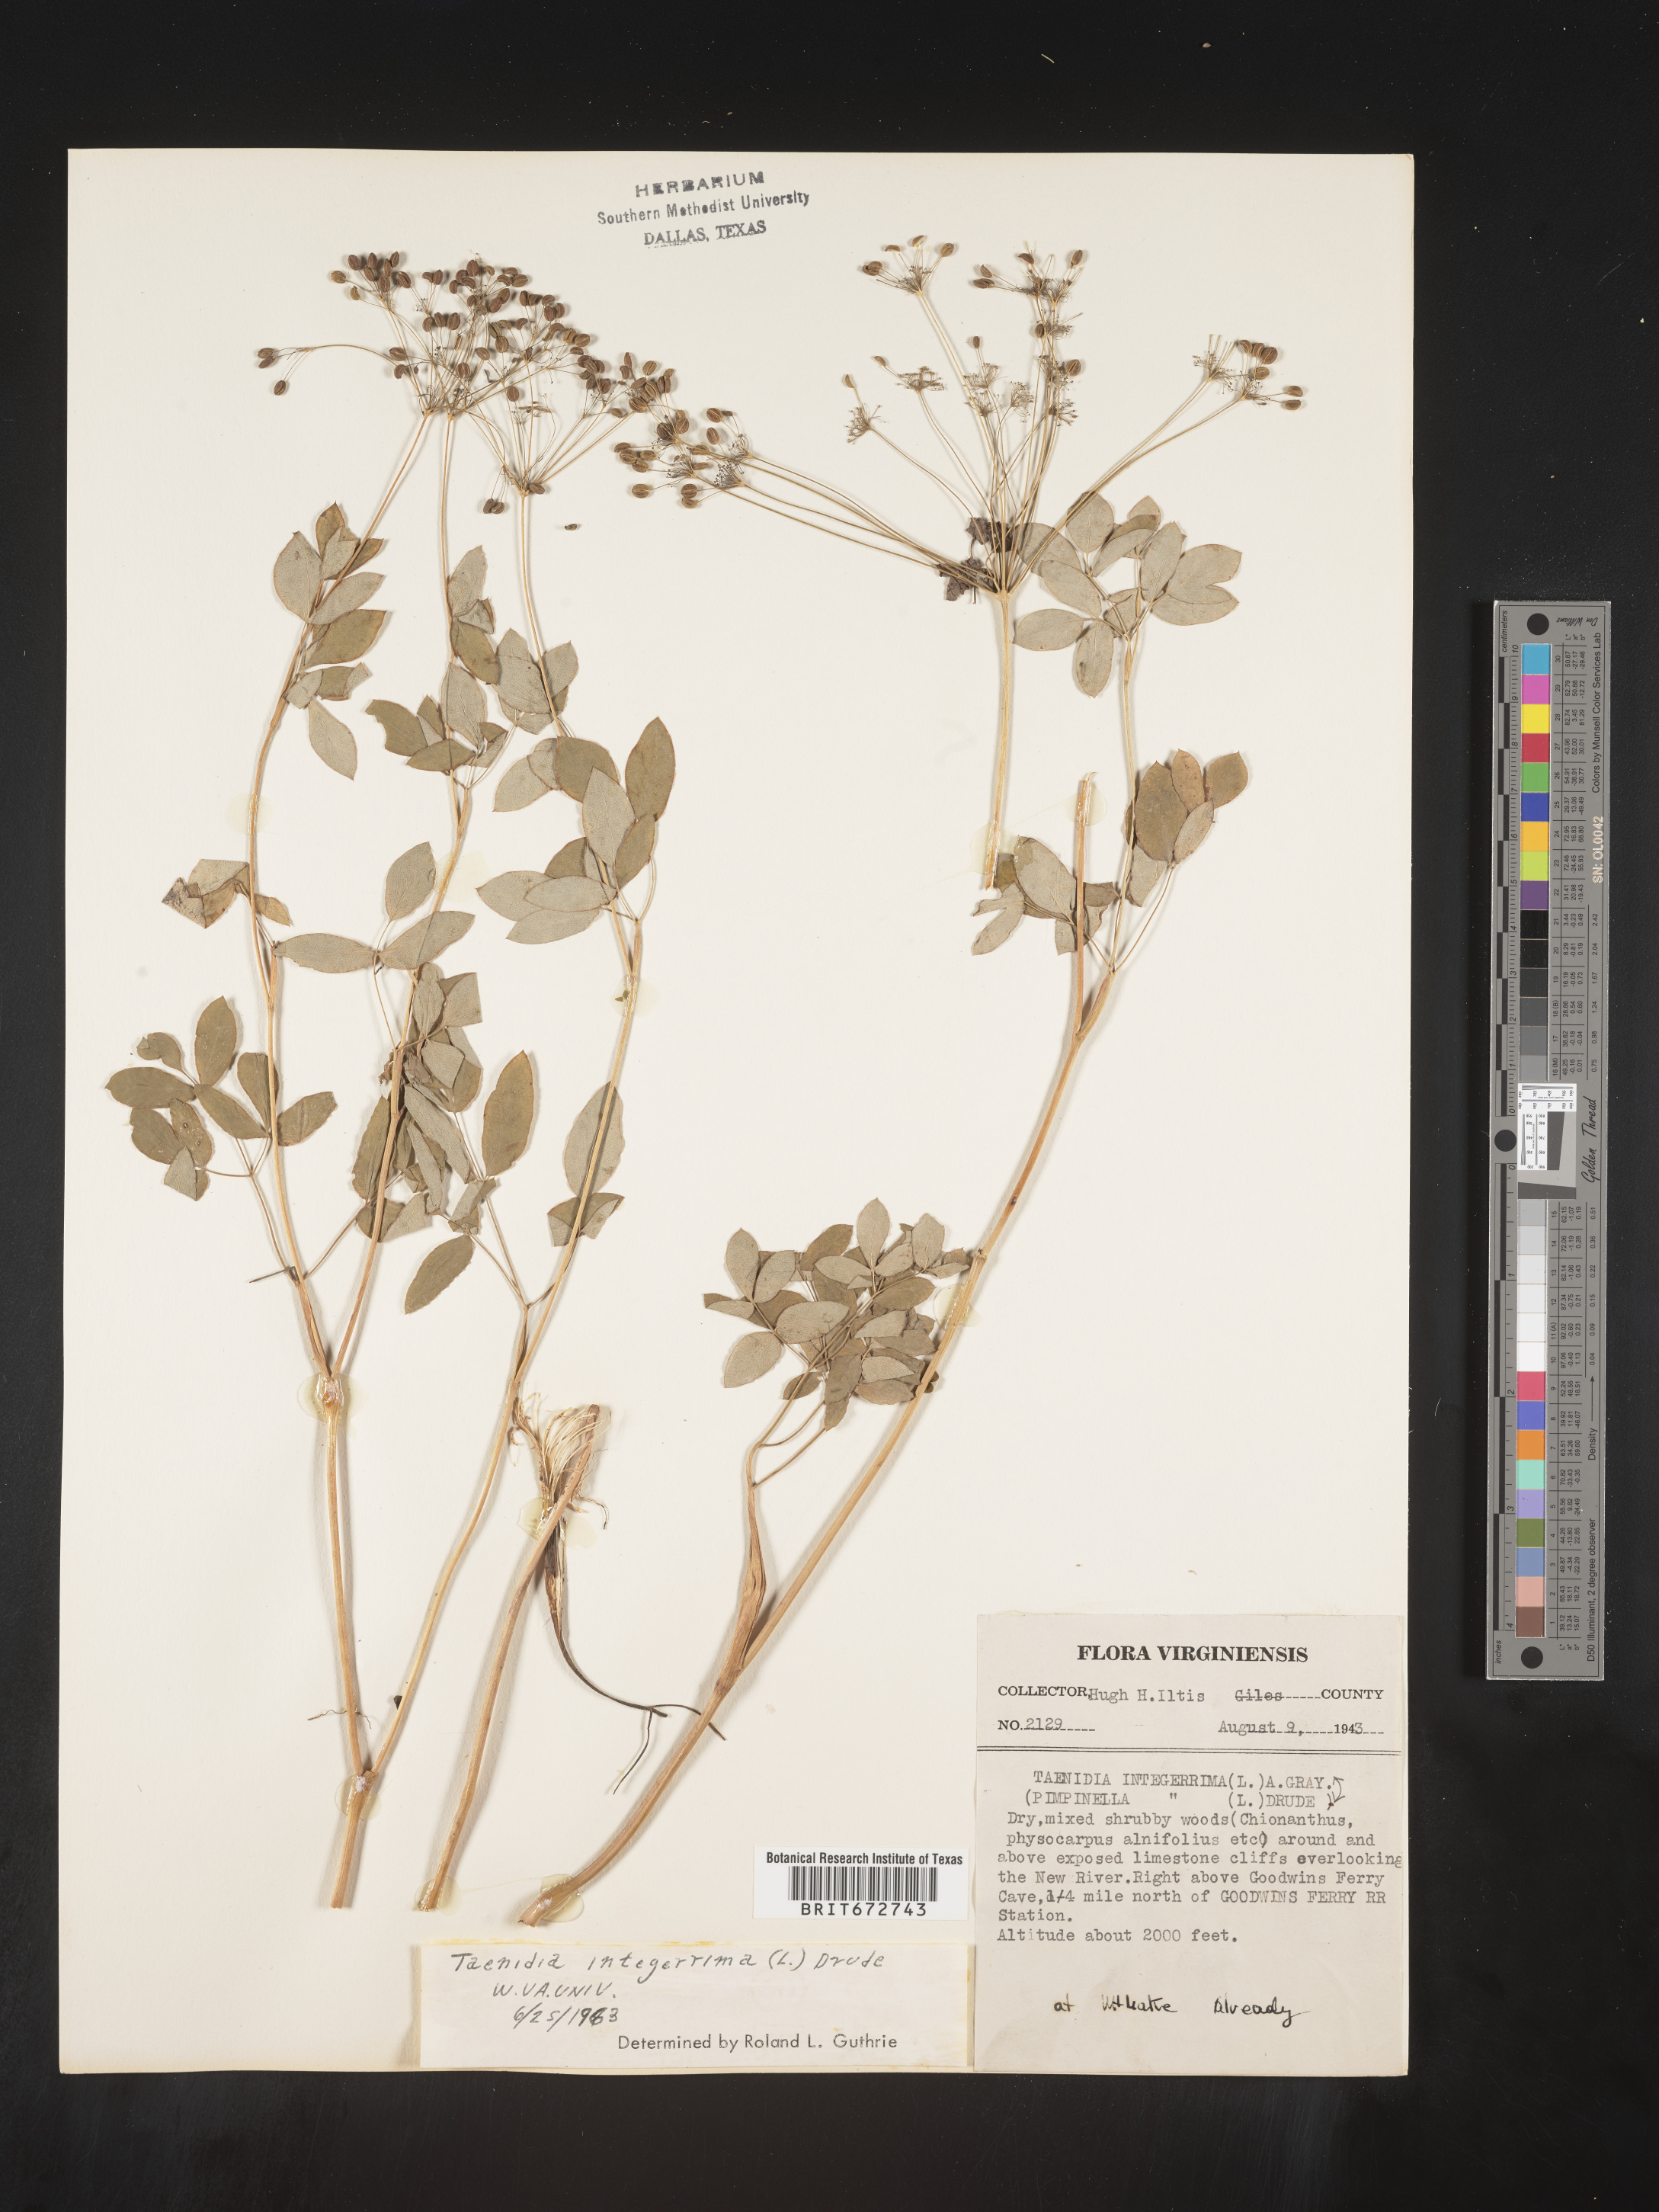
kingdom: Plantae
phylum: Tracheophyta
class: Magnoliopsida
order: Apiales
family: Apiaceae
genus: Taenidia
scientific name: Taenidia
